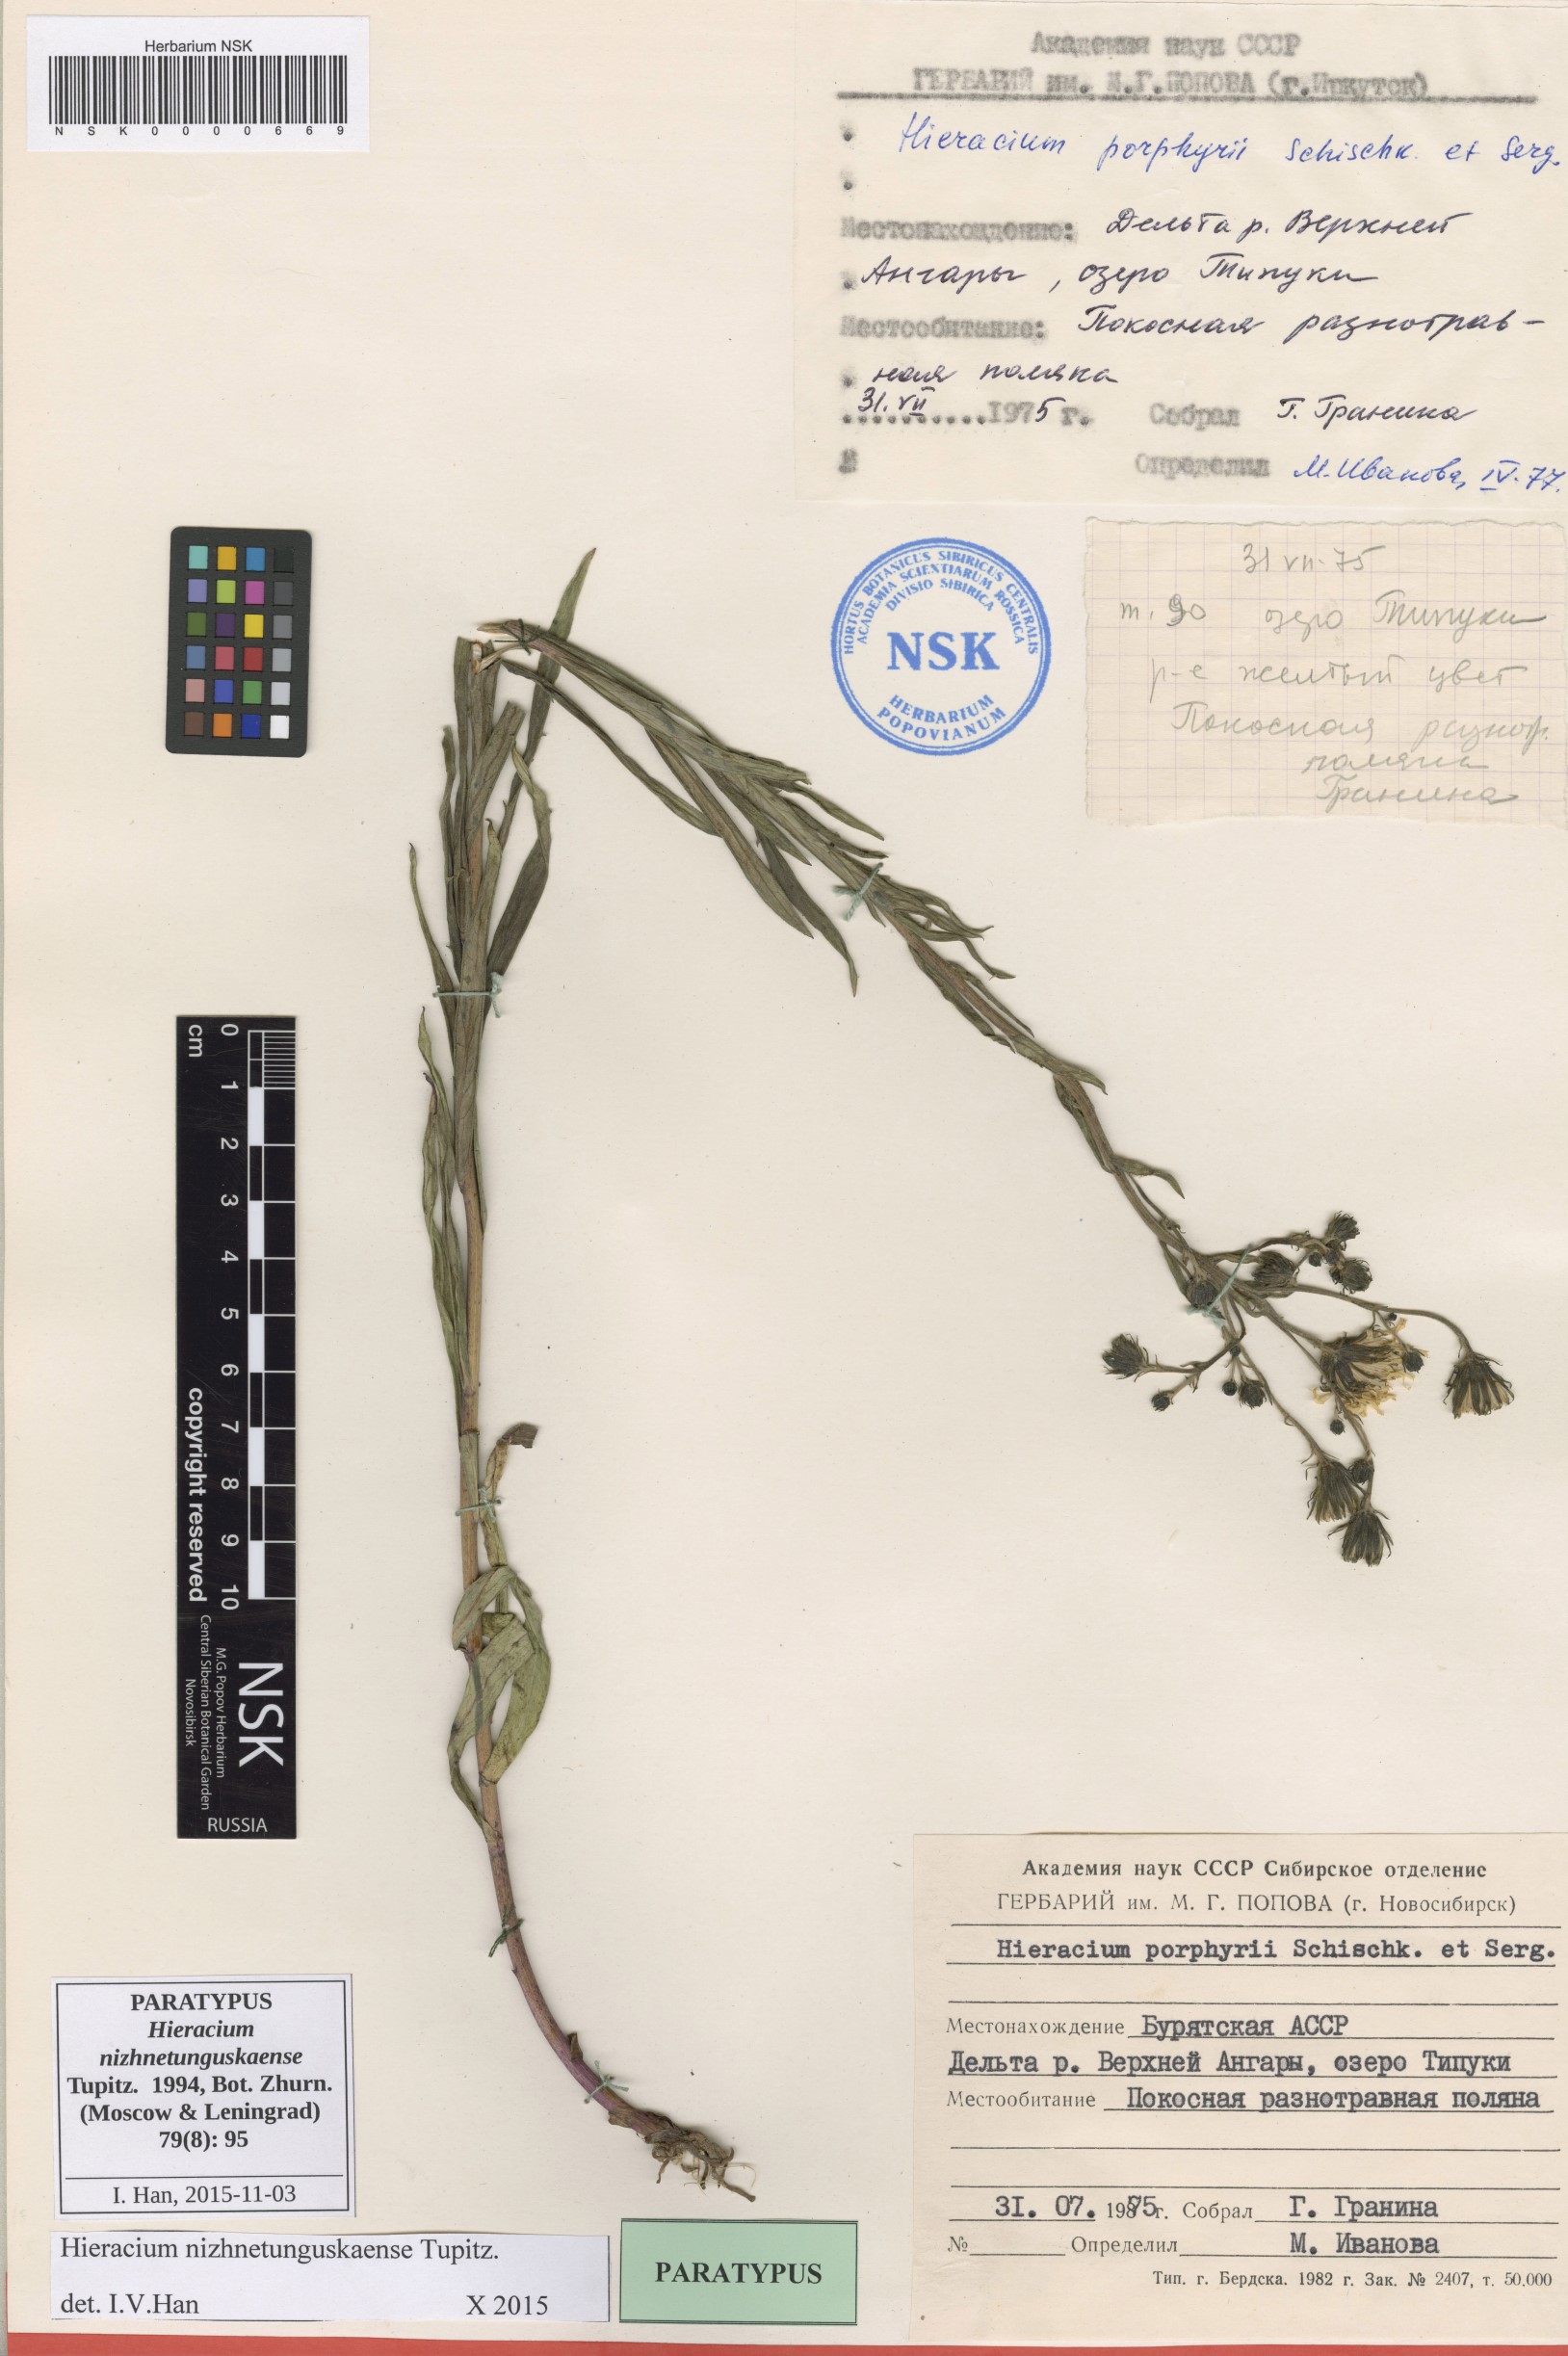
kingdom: Plantae
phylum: Tracheophyta
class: Magnoliopsida
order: Asterales
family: Asteraceae
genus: Hieracium
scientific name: Hieracium nizhnetunguskaense
